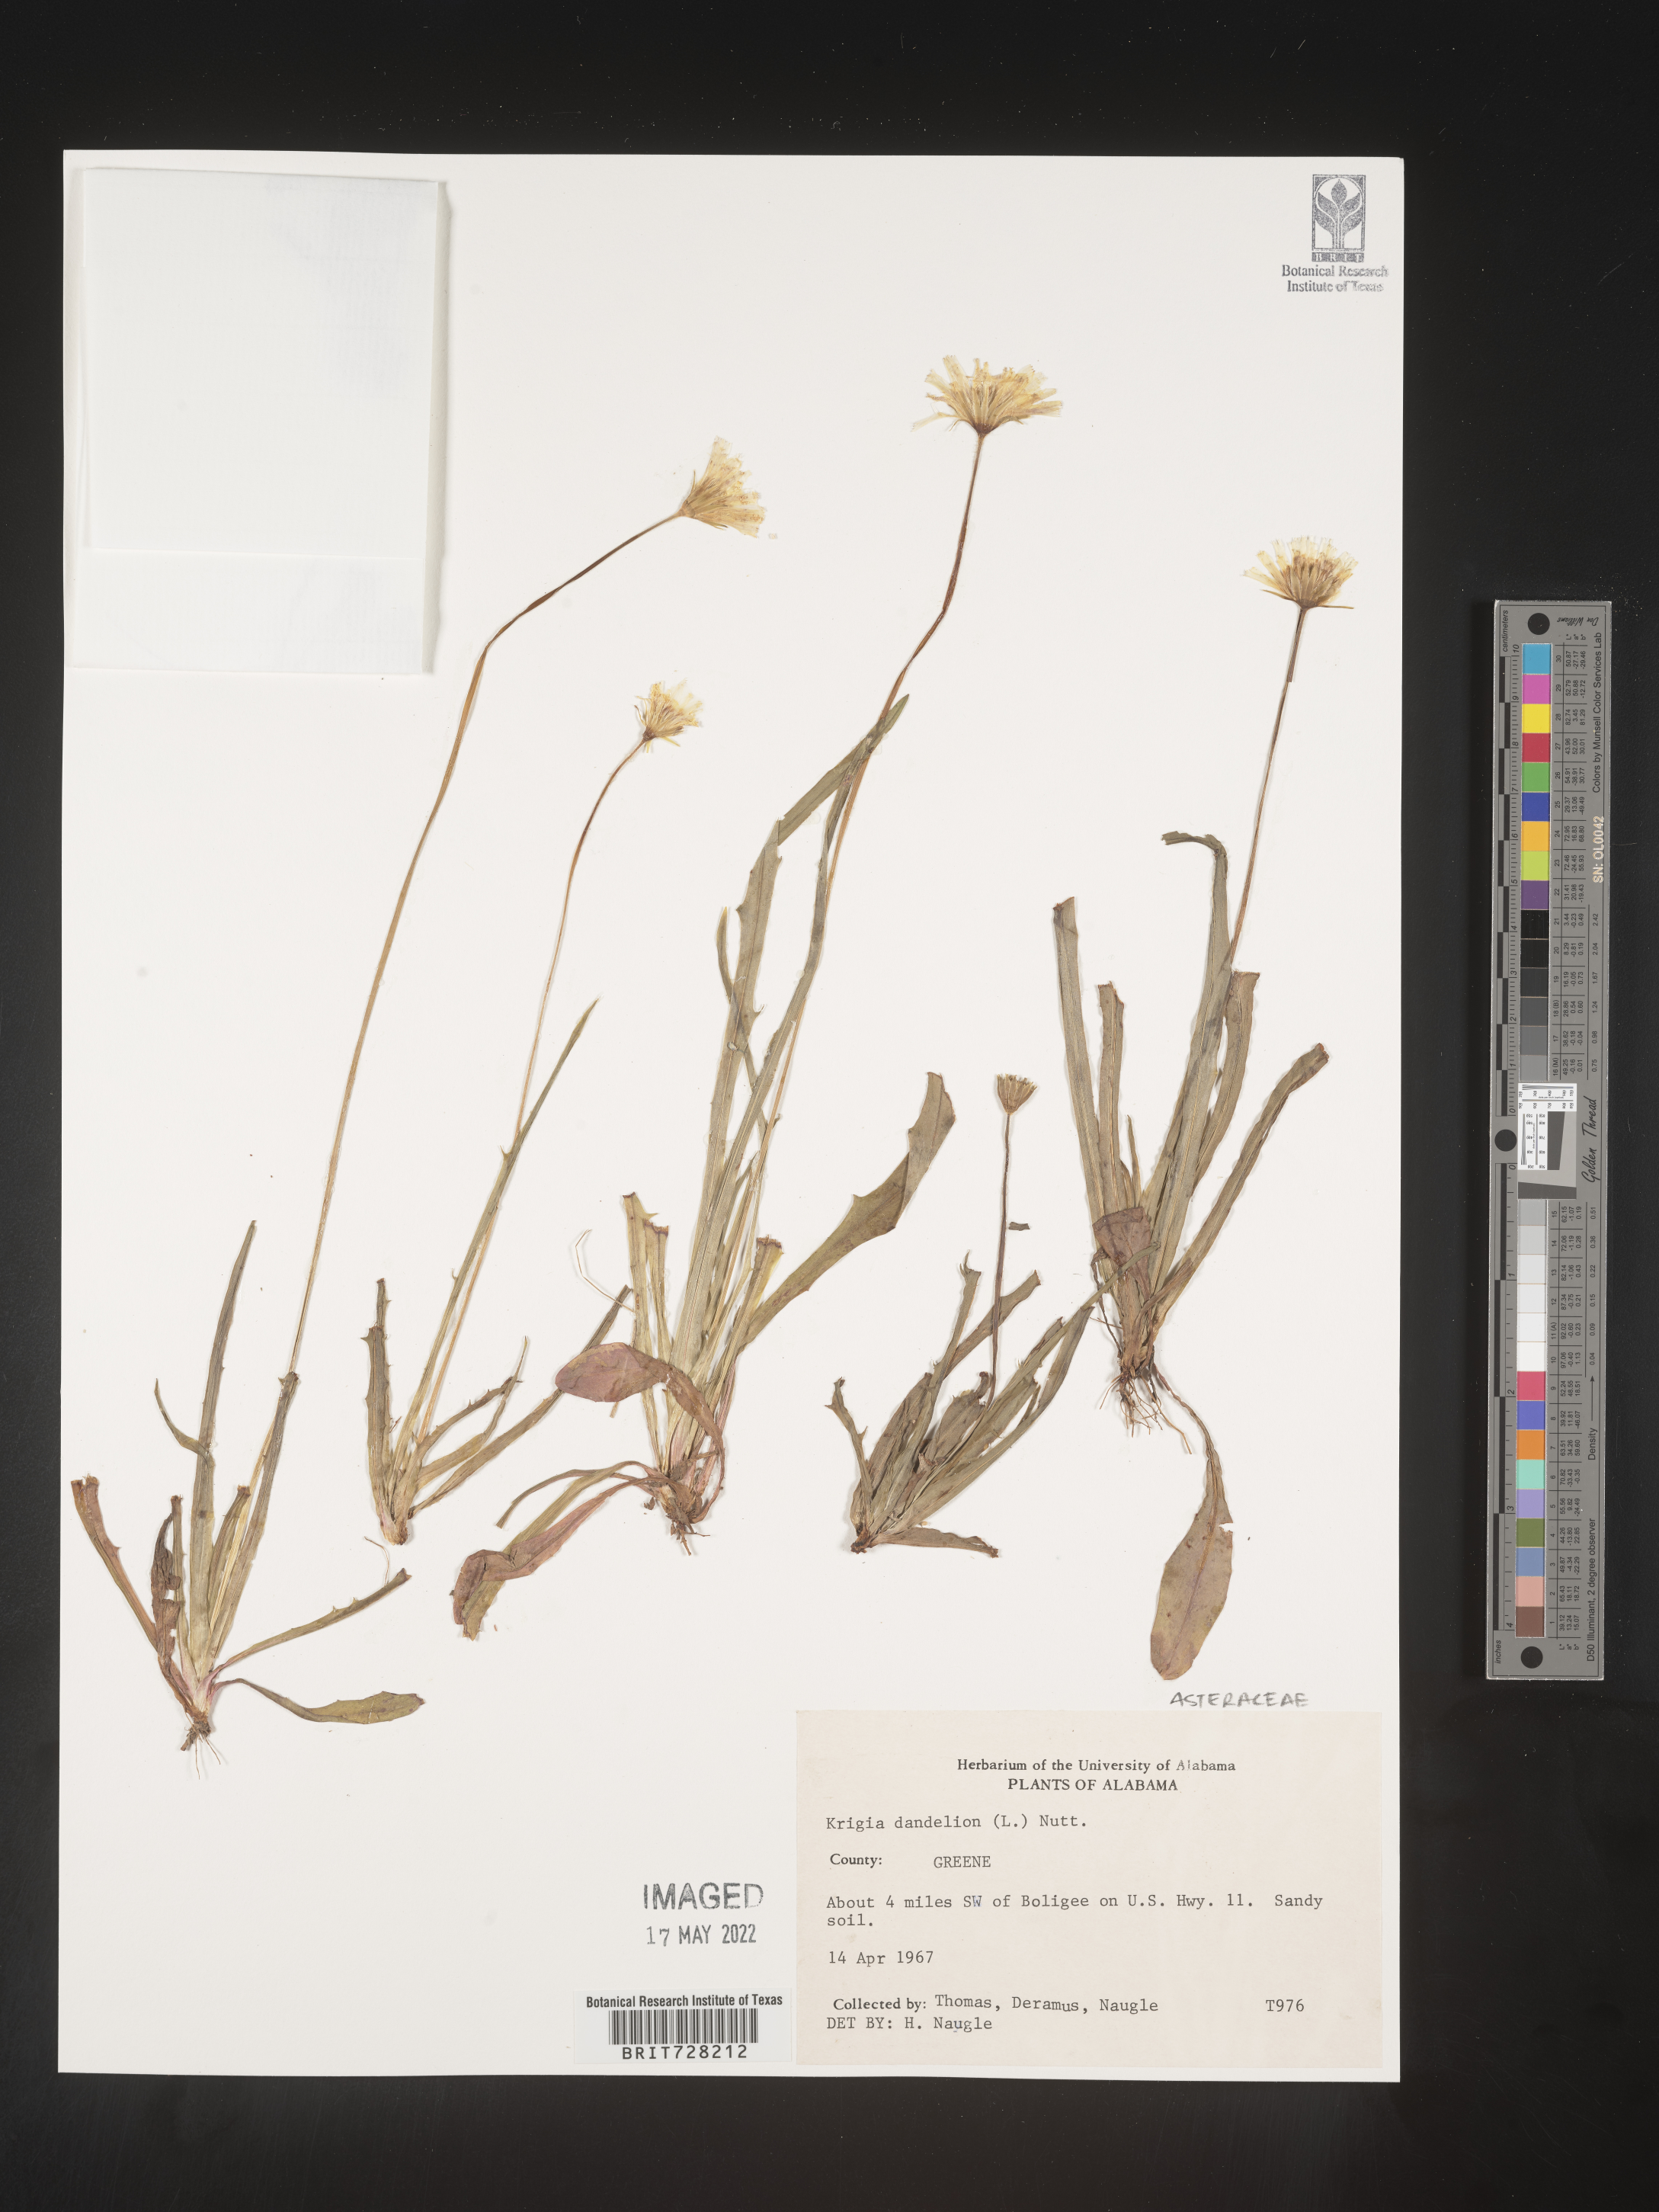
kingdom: Plantae
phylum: Tracheophyta
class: Magnoliopsida
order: Asterales
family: Asteraceae
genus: Krigia
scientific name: Krigia dandelion
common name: Colonial dwarf-dandelion
